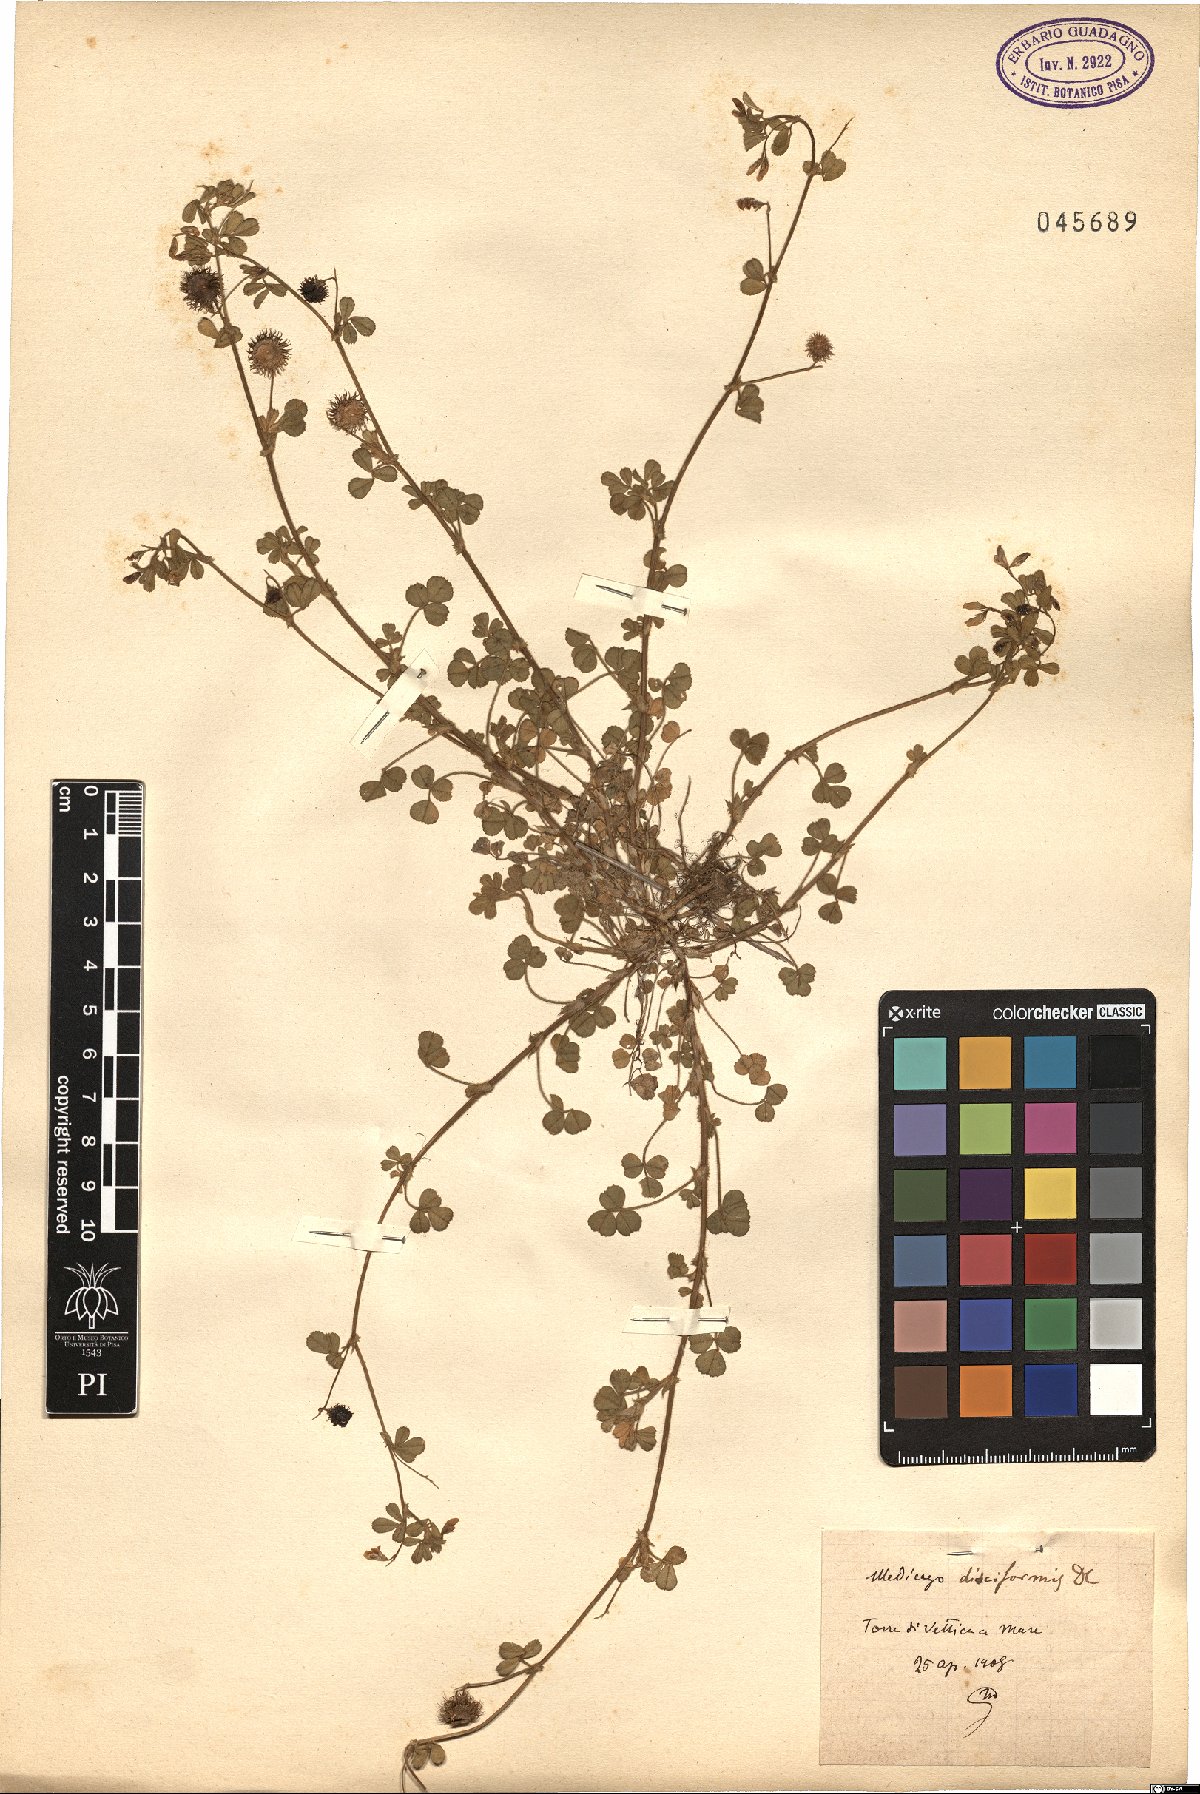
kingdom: Plantae
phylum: Tracheophyta
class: Magnoliopsida
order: Fabales
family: Fabaceae
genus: Medicago
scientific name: Medicago disciformis
